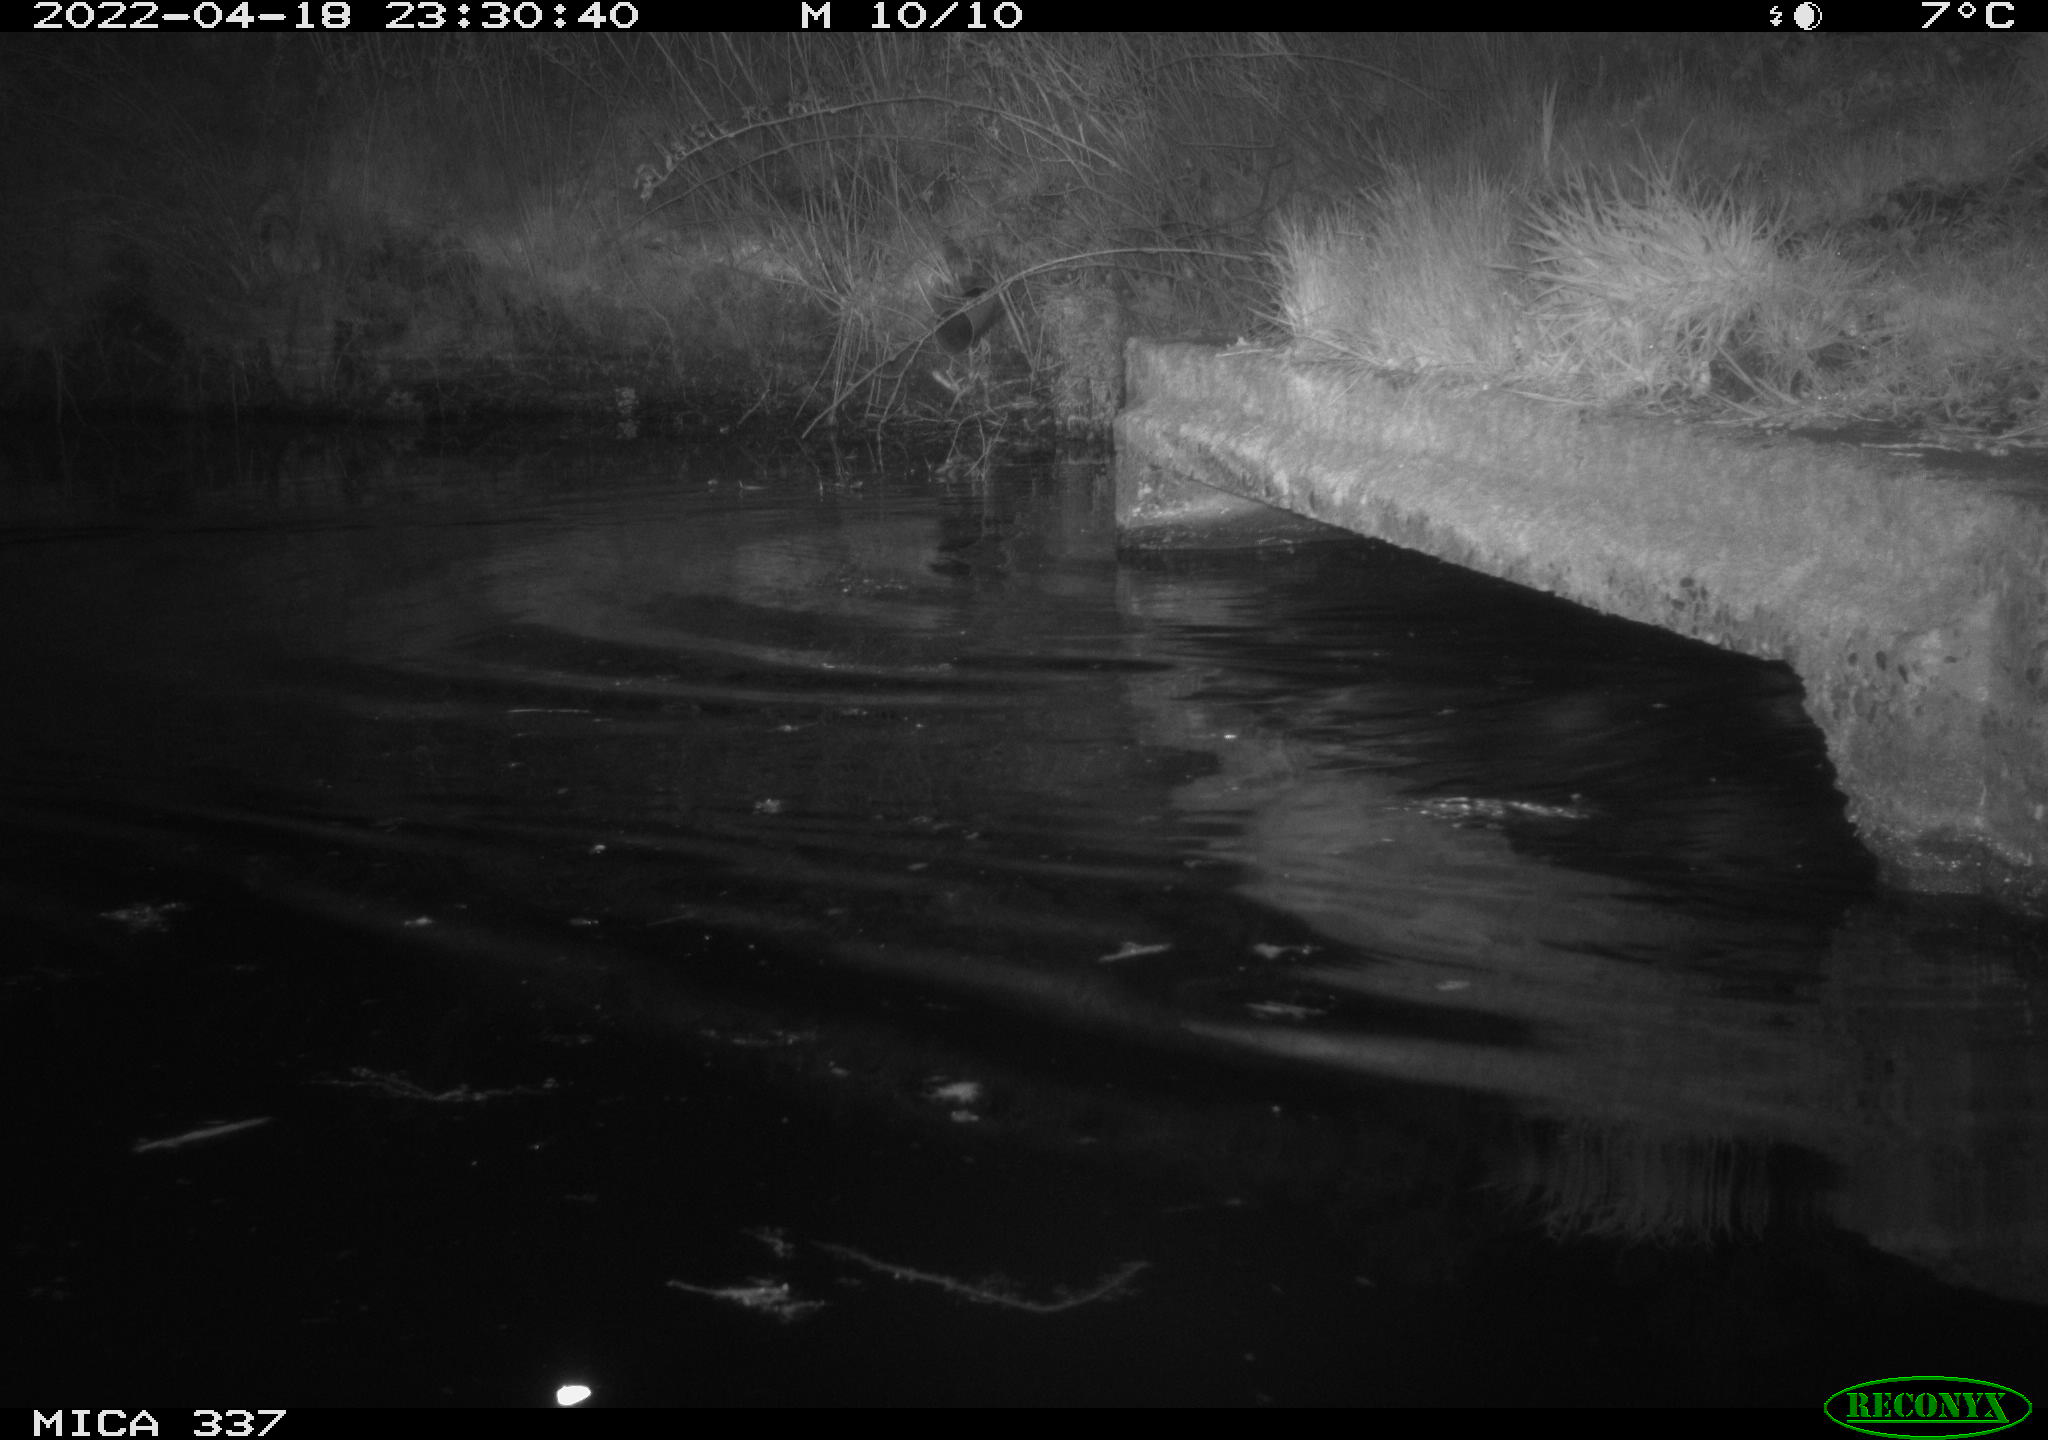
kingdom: Animalia
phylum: Chordata
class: Aves
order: Anseriformes
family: Anatidae
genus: Anas
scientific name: Anas platyrhynchos
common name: Mallard
